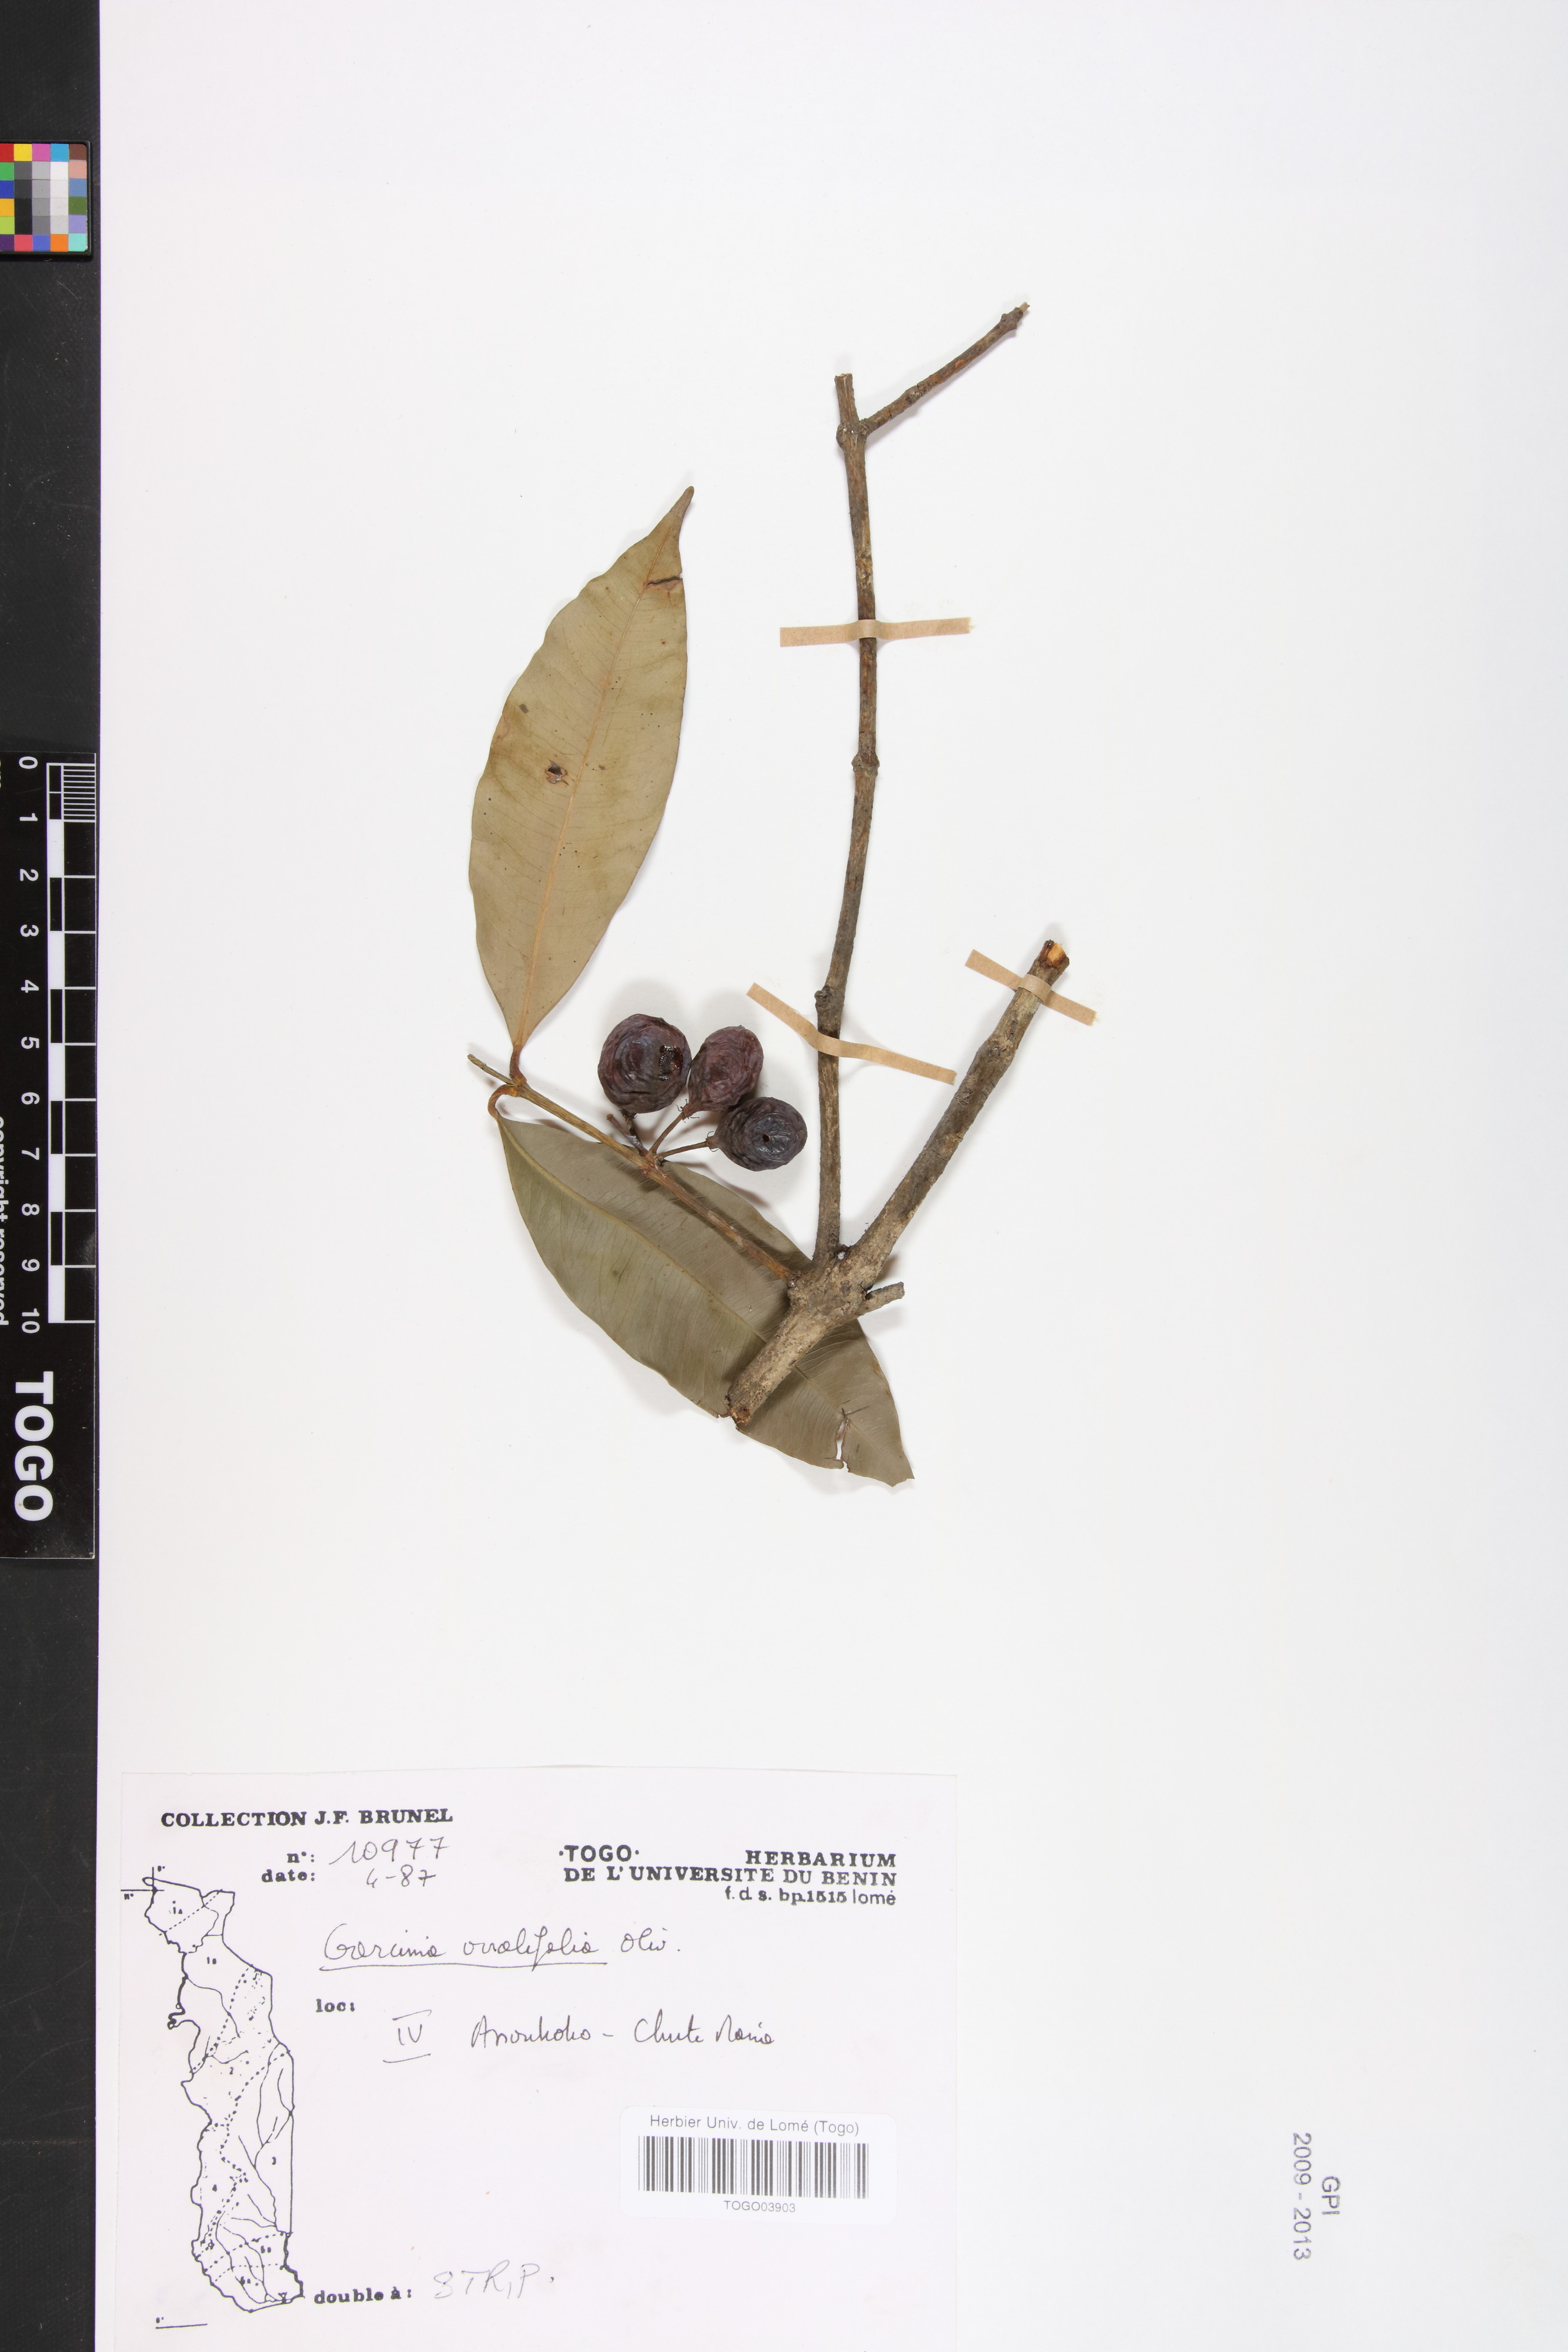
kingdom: Plantae
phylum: Tracheophyta
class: Magnoliopsida
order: Malpighiales
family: Clusiaceae
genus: Garcinia
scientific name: Garcinia ovalifolia
